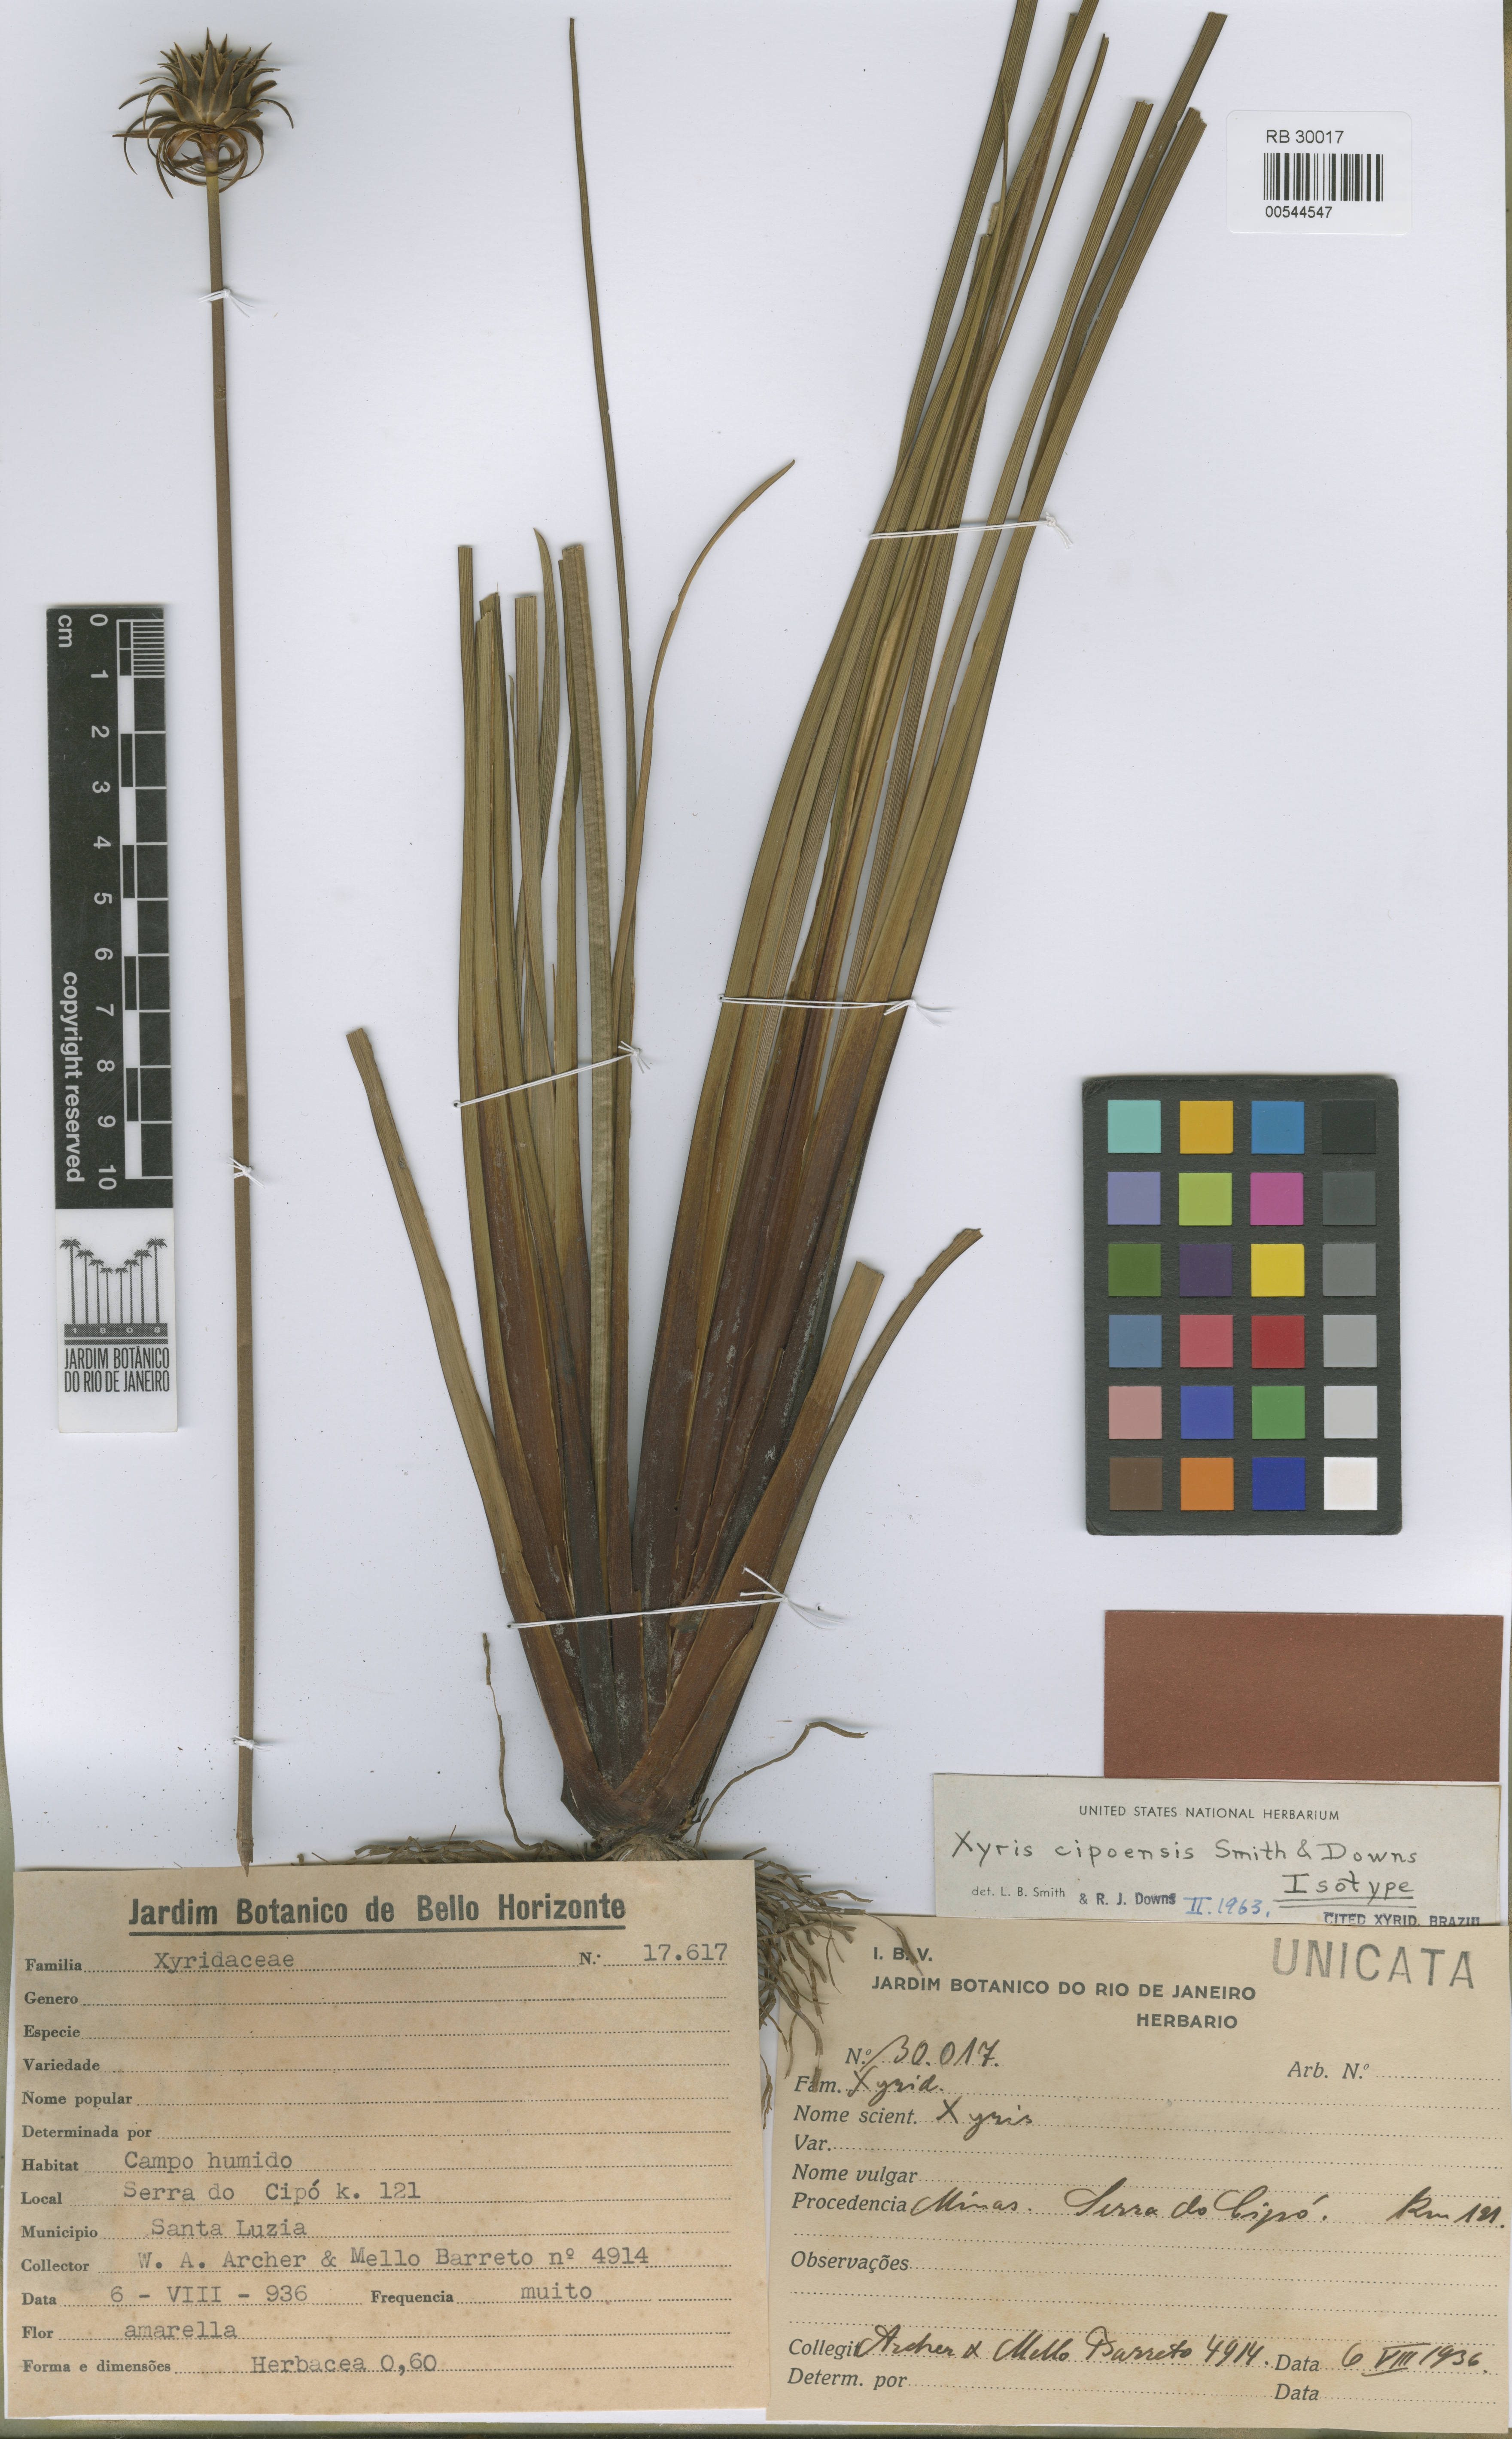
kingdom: Plantae
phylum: Tracheophyta
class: Liliopsida
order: Poales
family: Xyridaceae
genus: Xyris
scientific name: Xyris cipoensis
